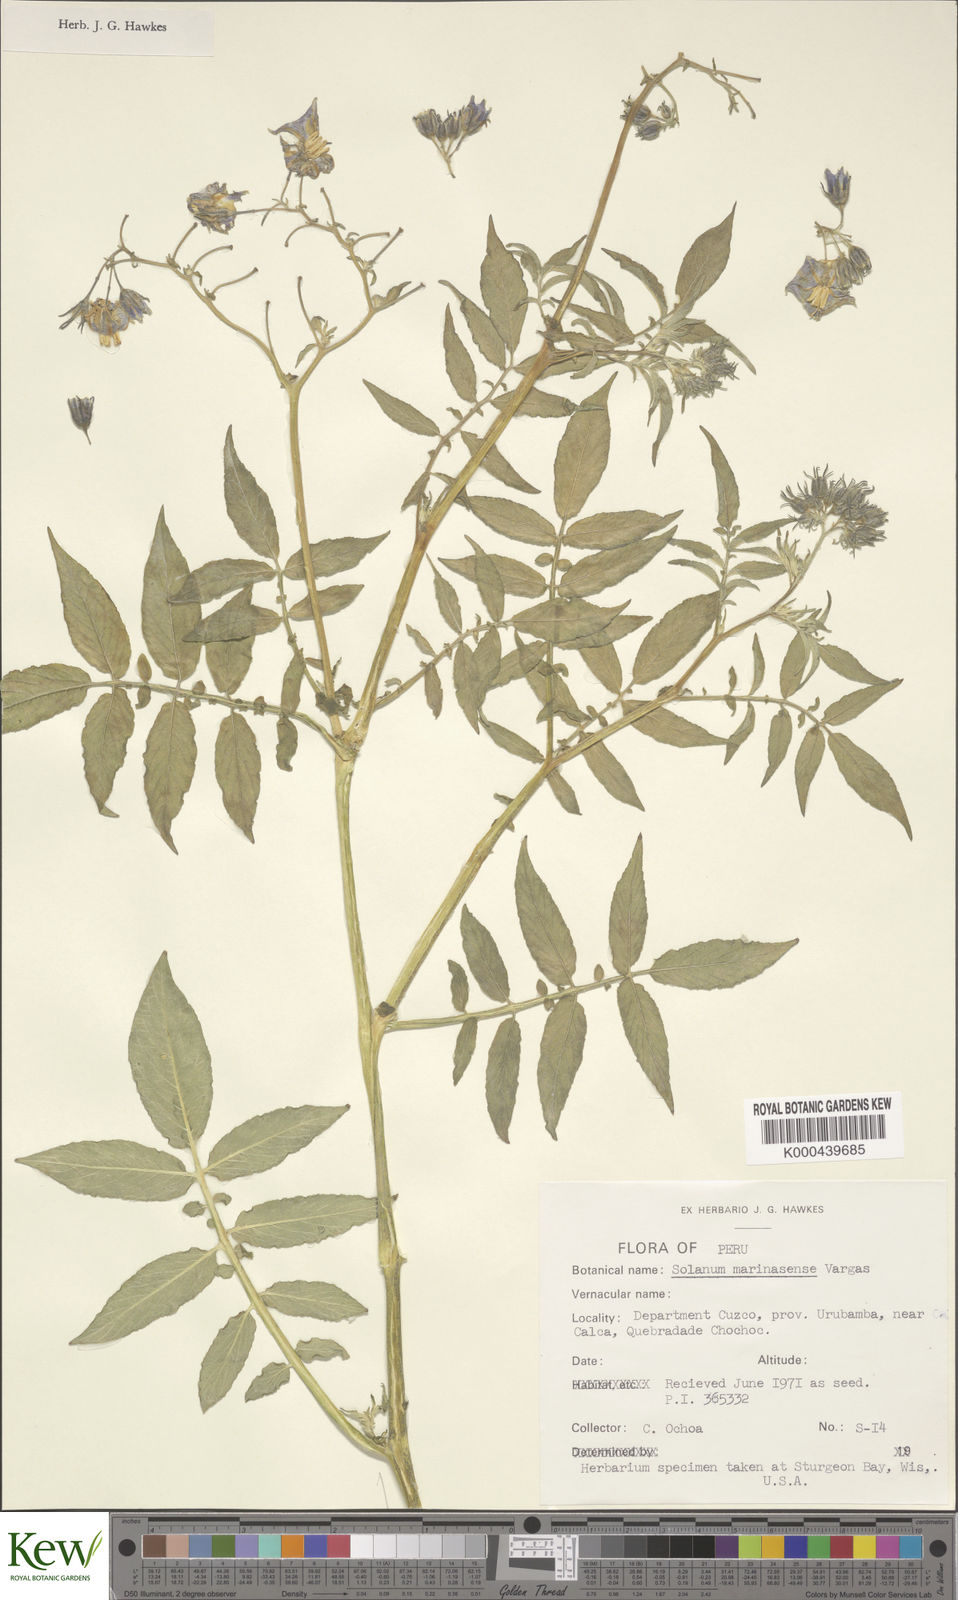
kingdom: Plantae
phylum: Tracheophyta
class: Magnoliopsida
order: Solanales
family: Solanaceae
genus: Solanum
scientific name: Solanum candolleanum
